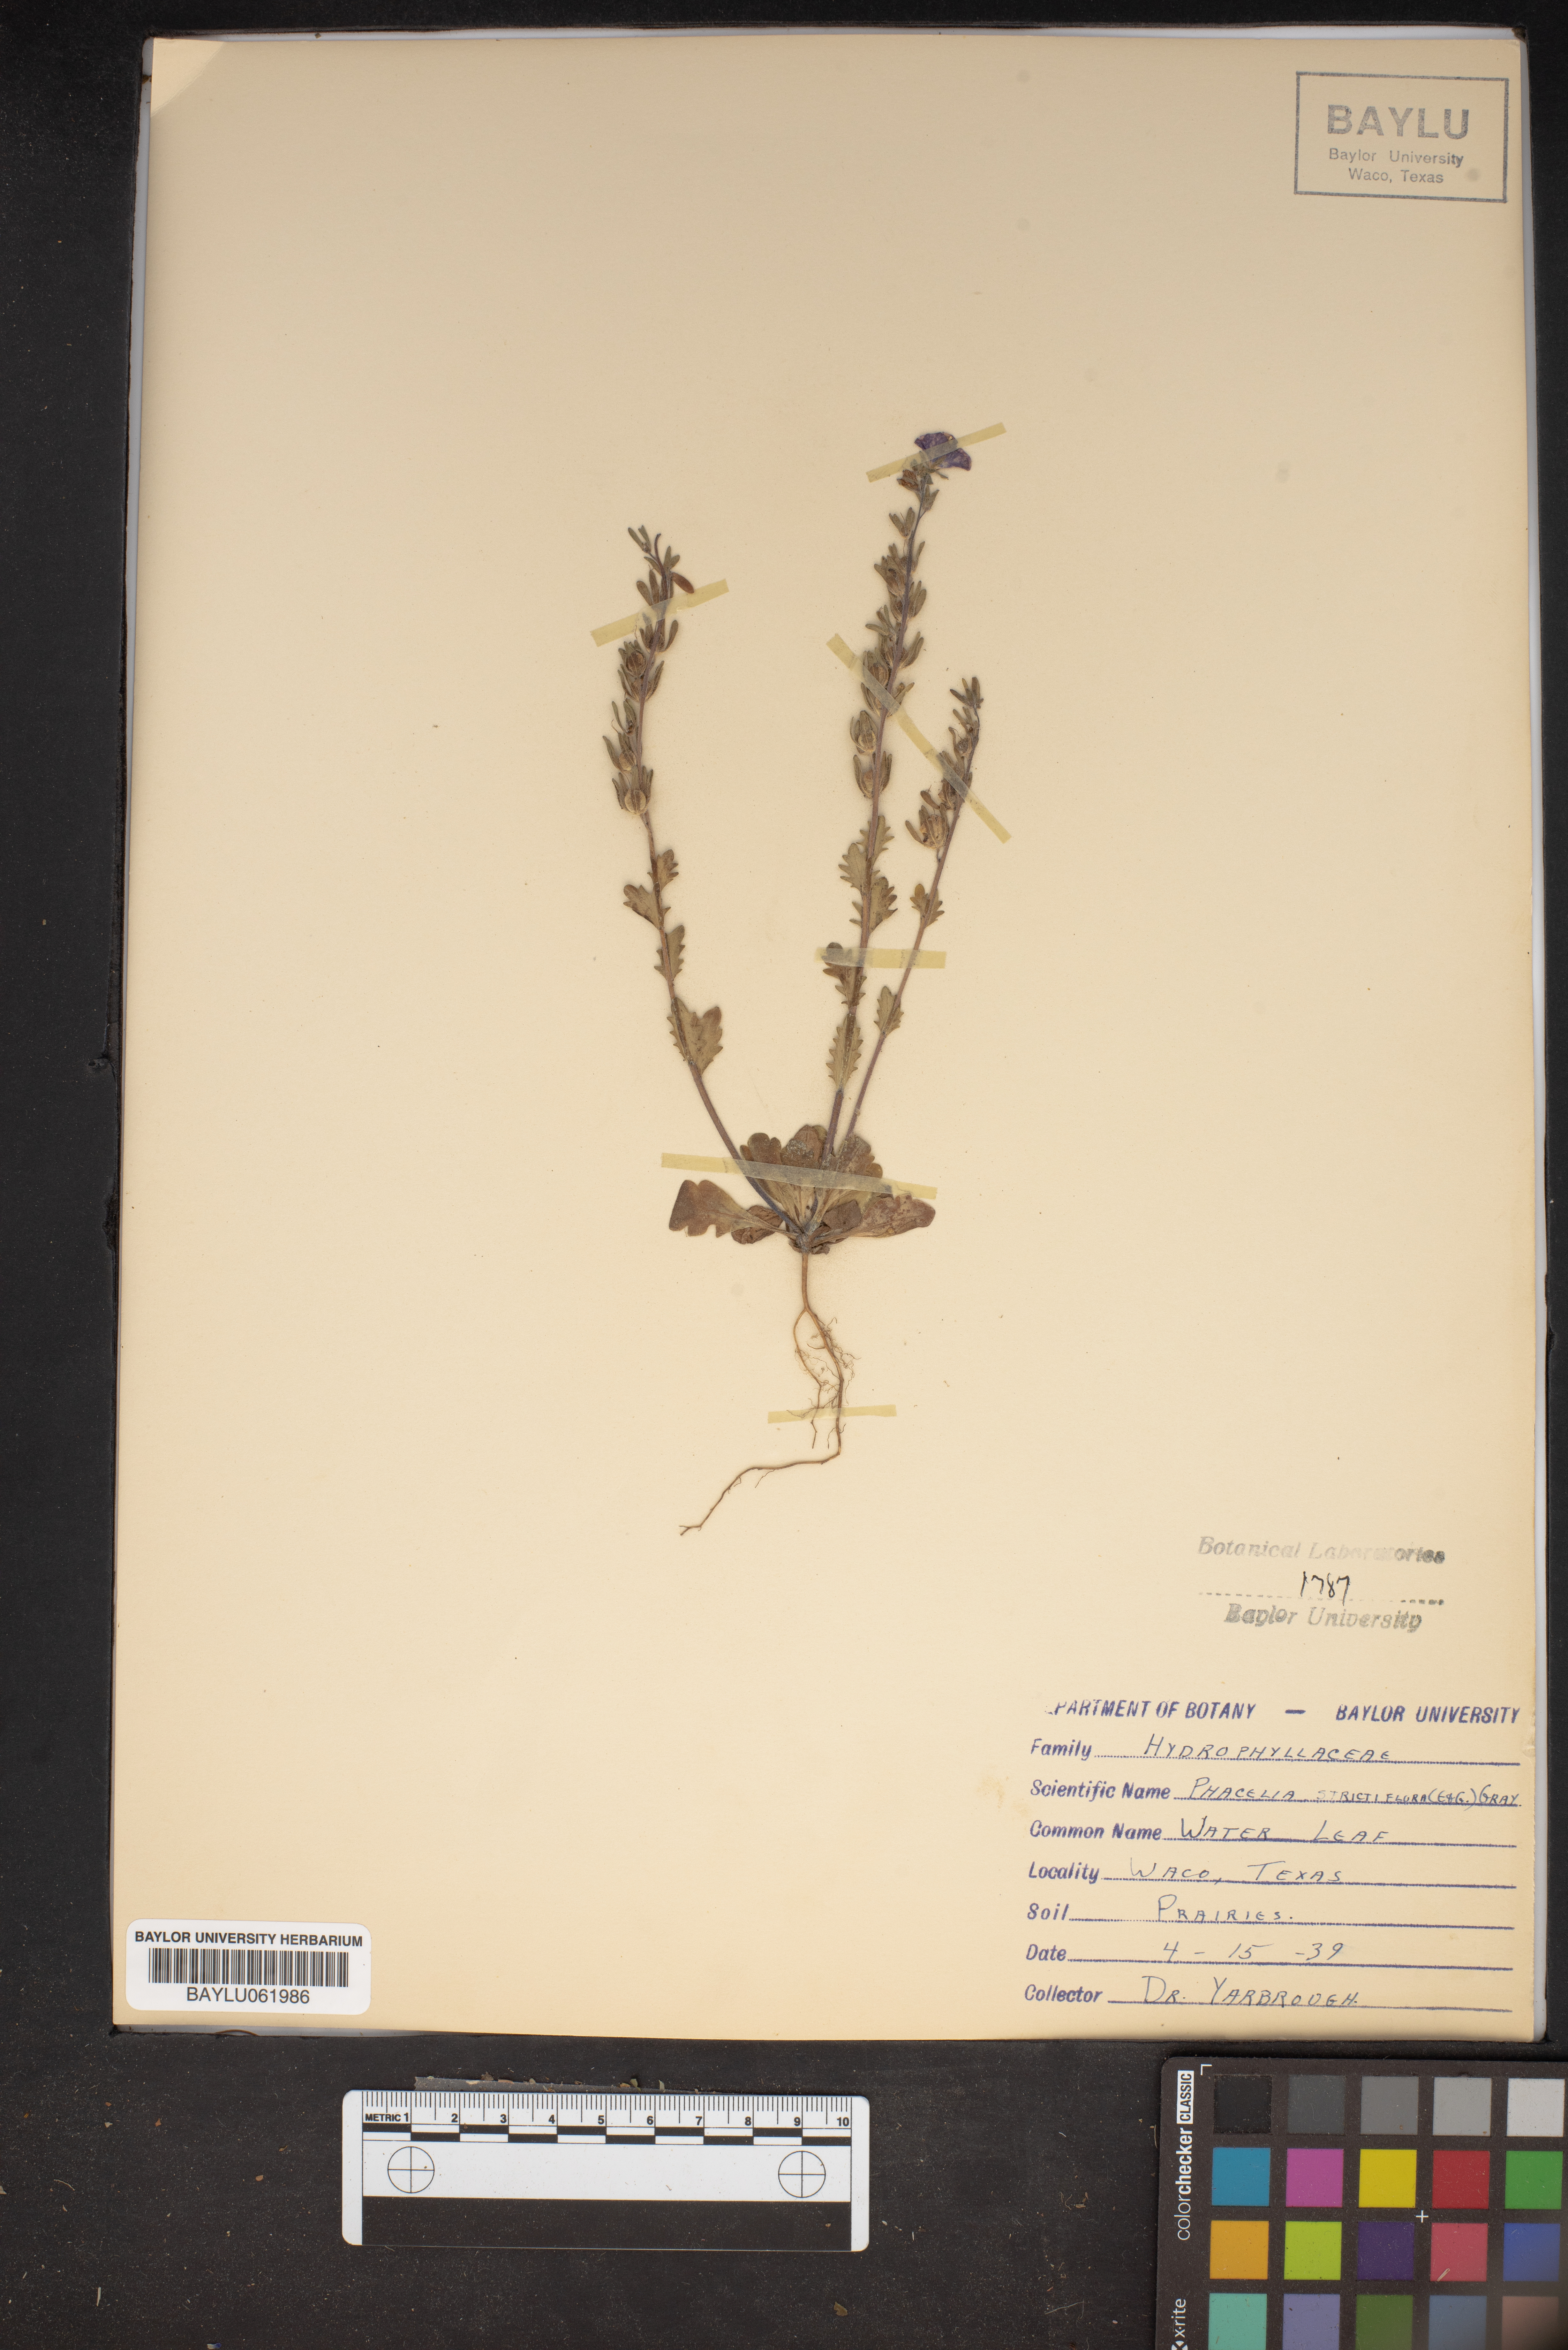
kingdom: Plantae
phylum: Tracheophyta
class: Magnoliopsida
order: Boraginales
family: Hydrophyllaceae
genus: Phacelia
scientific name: Phacelia strictiflora
